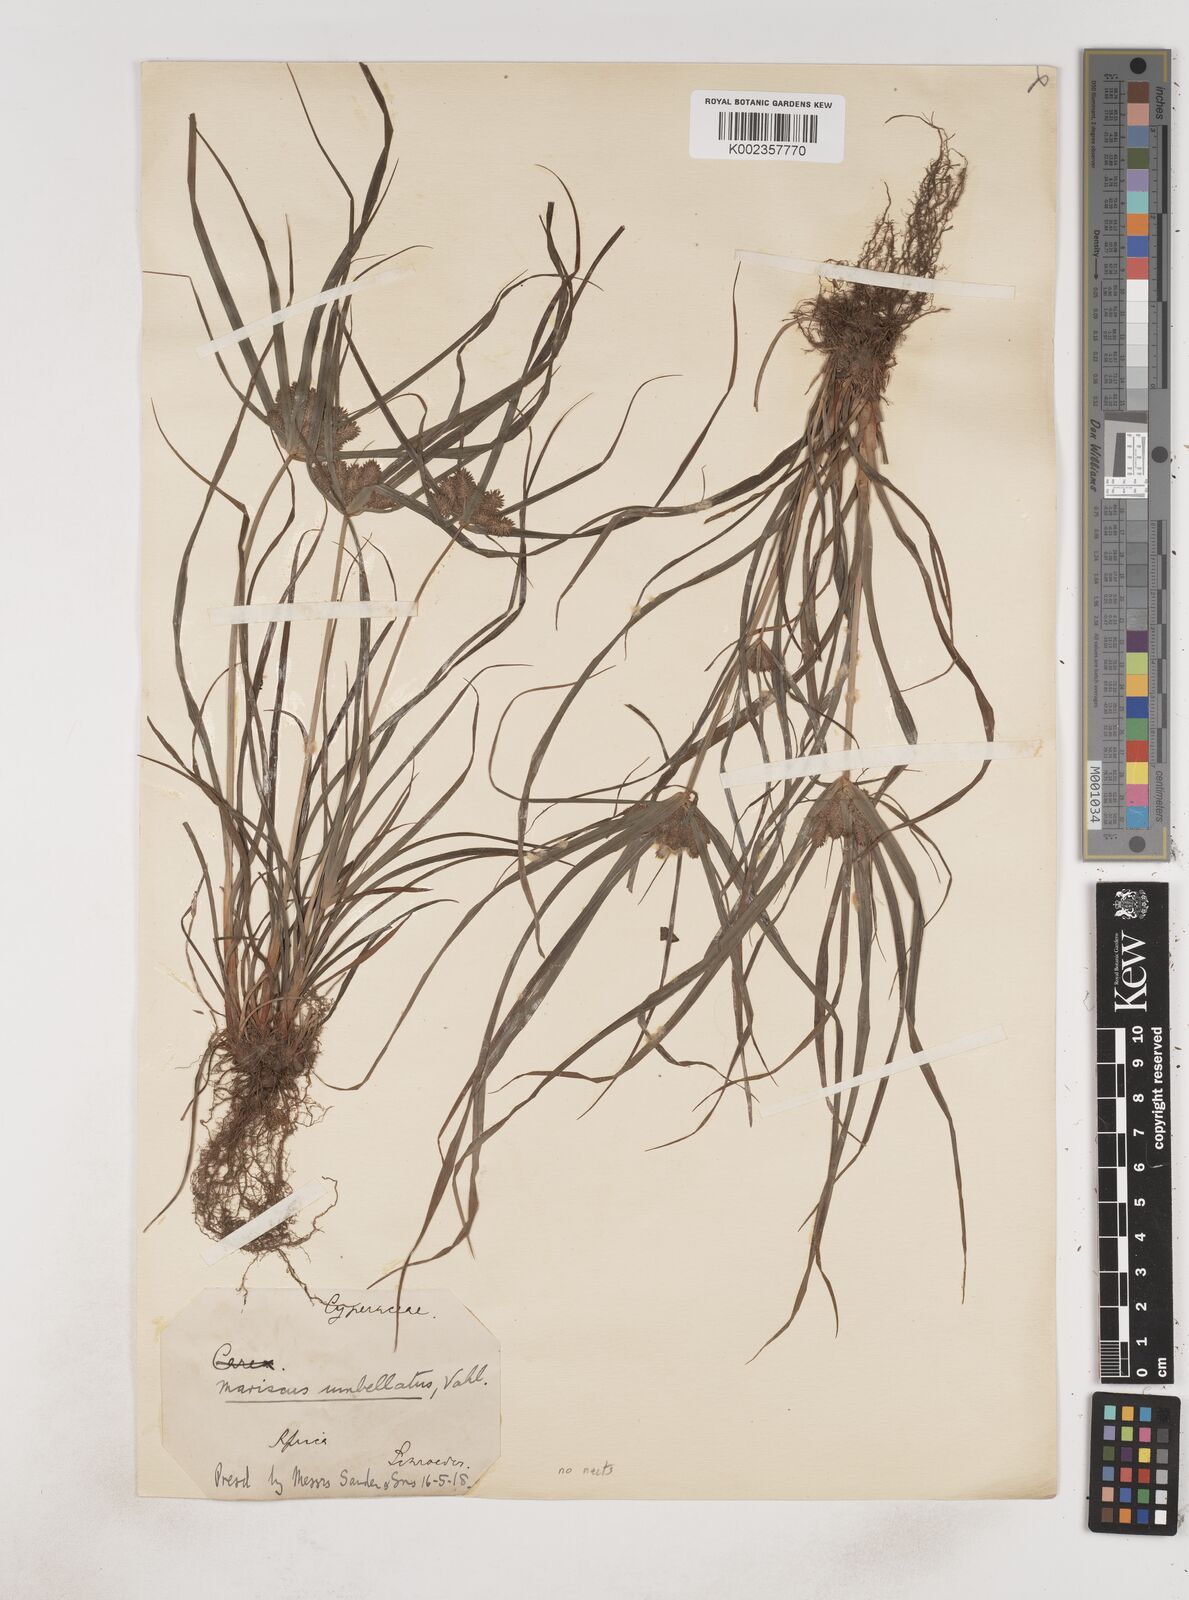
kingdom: Plantae
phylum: Tracheophyta
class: Liliopsida
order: Poales
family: Cyperaceae
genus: Cyperus
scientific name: Cyperus sublimis
